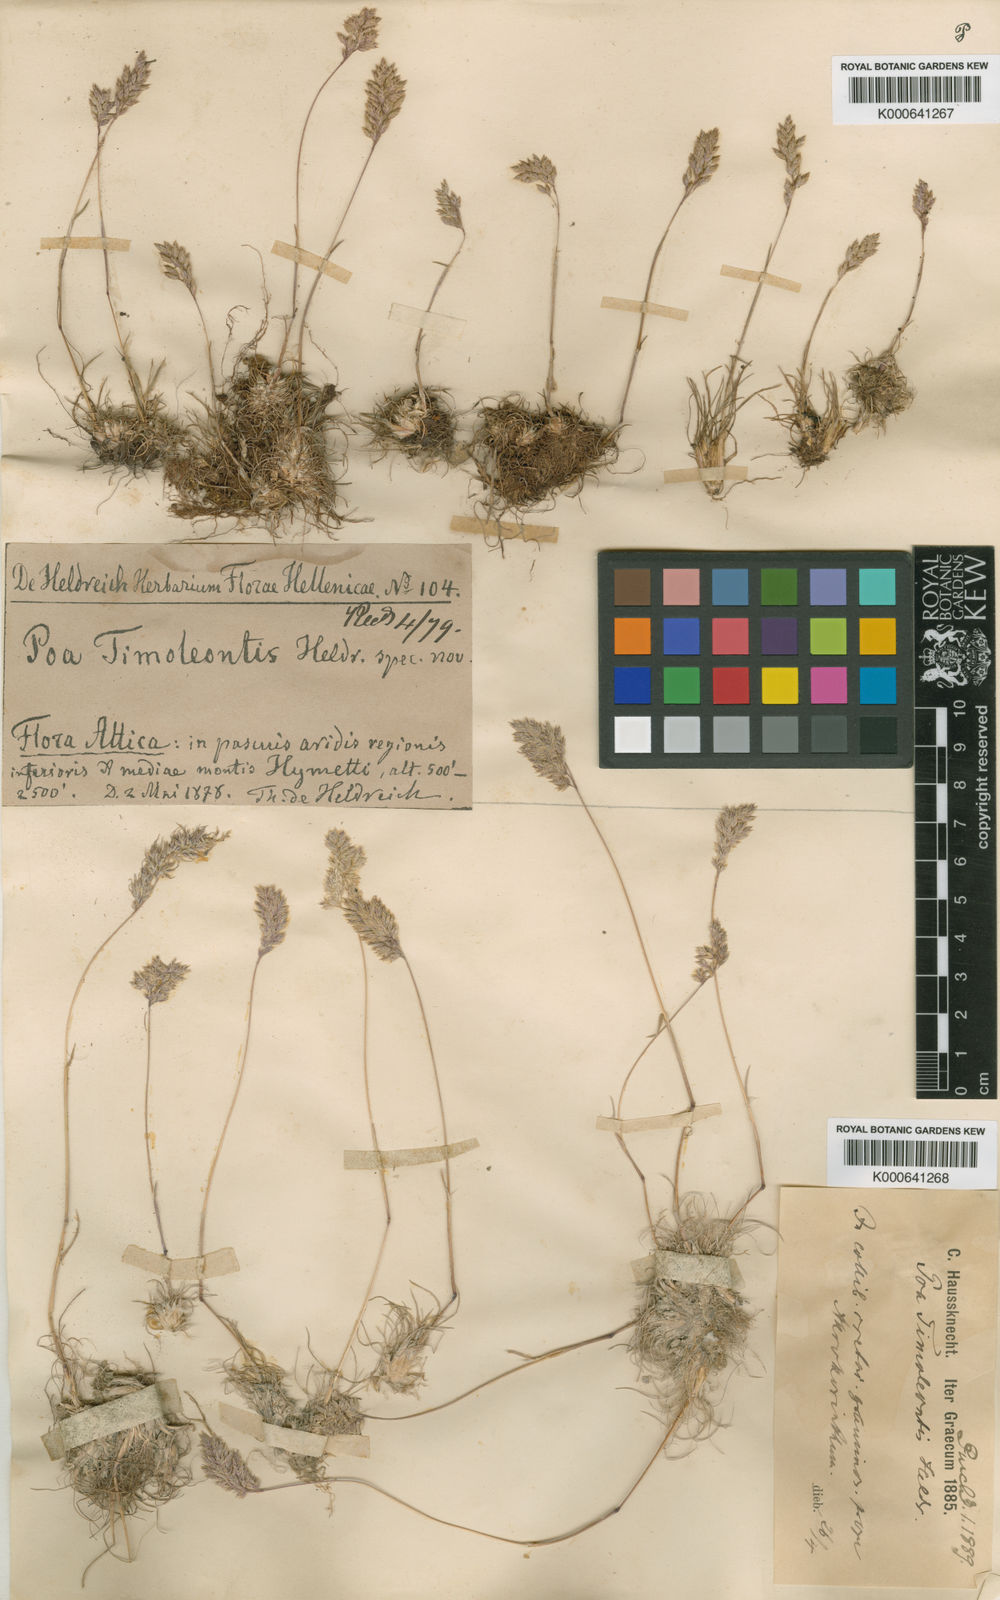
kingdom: Plantae
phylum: Tracheophyta
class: Liliopsida
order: Poales
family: Poaceae
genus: Poa
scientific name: Poa timoleontis
